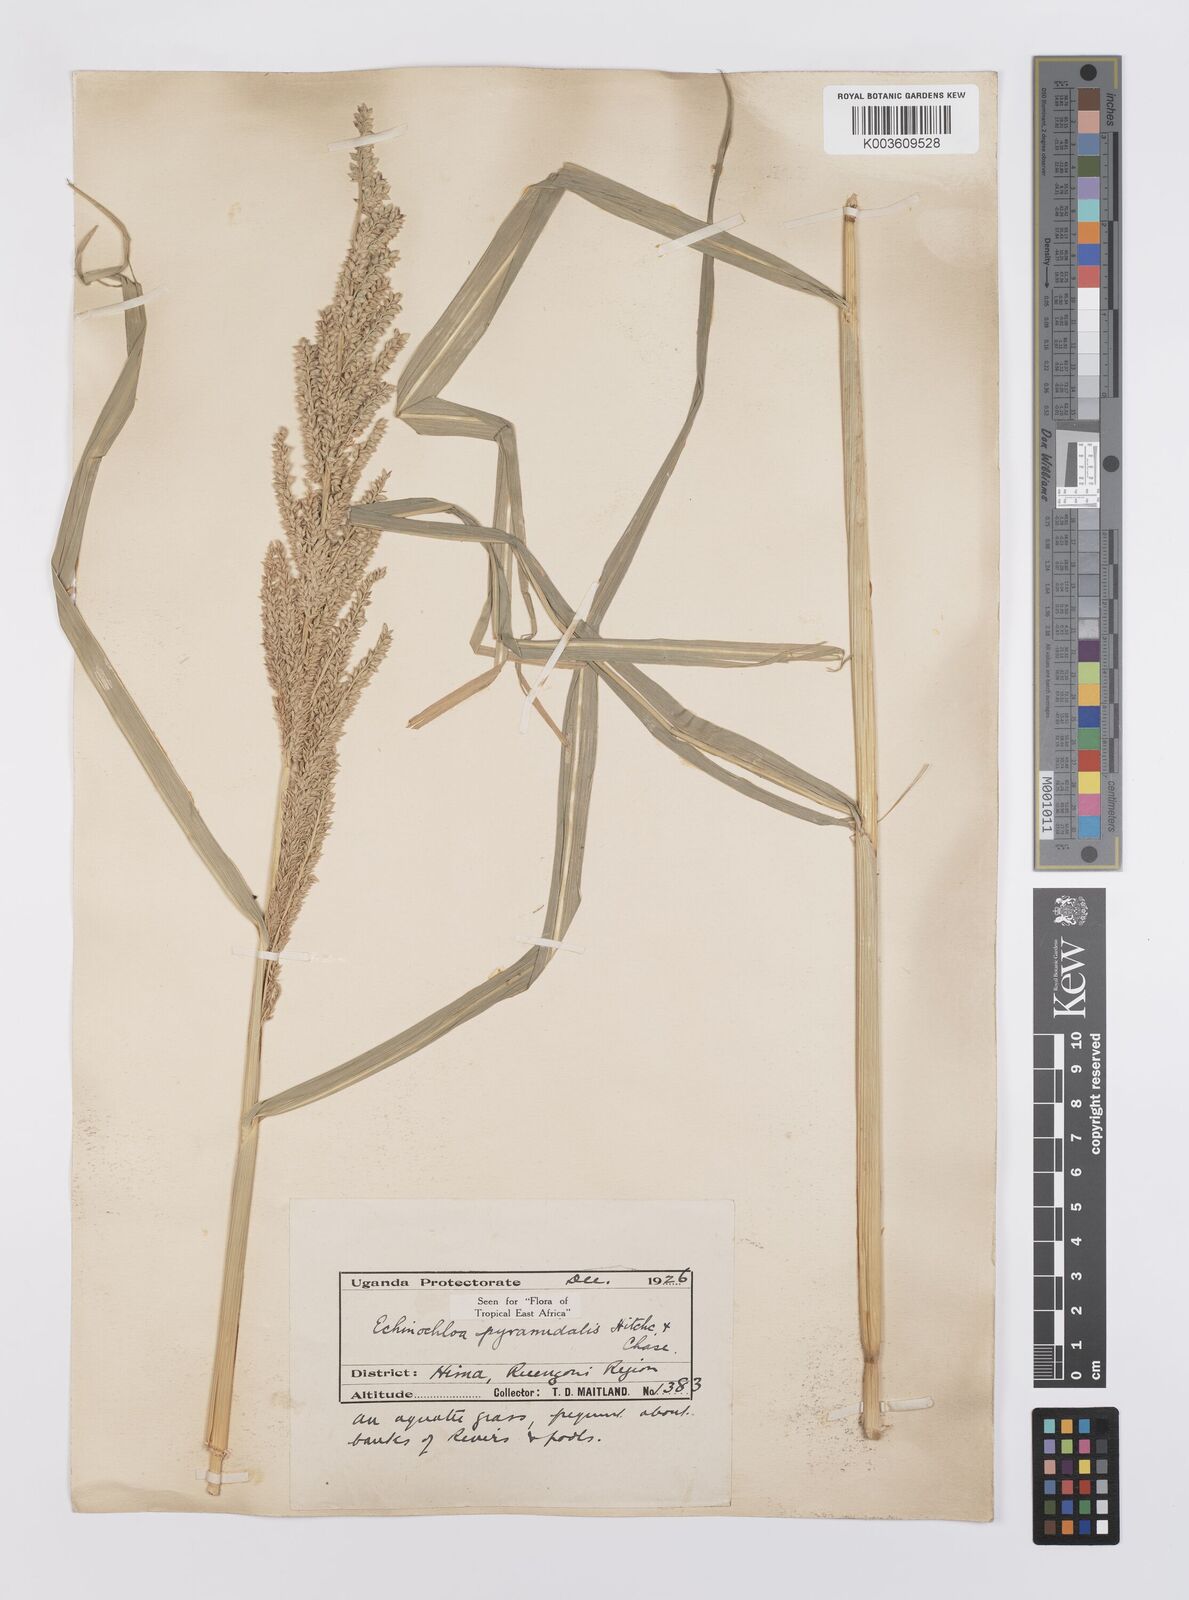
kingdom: Plantae
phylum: Tracheophyta
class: Liliopsida
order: Poales
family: Poaceae
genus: Echinochloa
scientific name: Echinochloa pyramidalis
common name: Antelope grass
